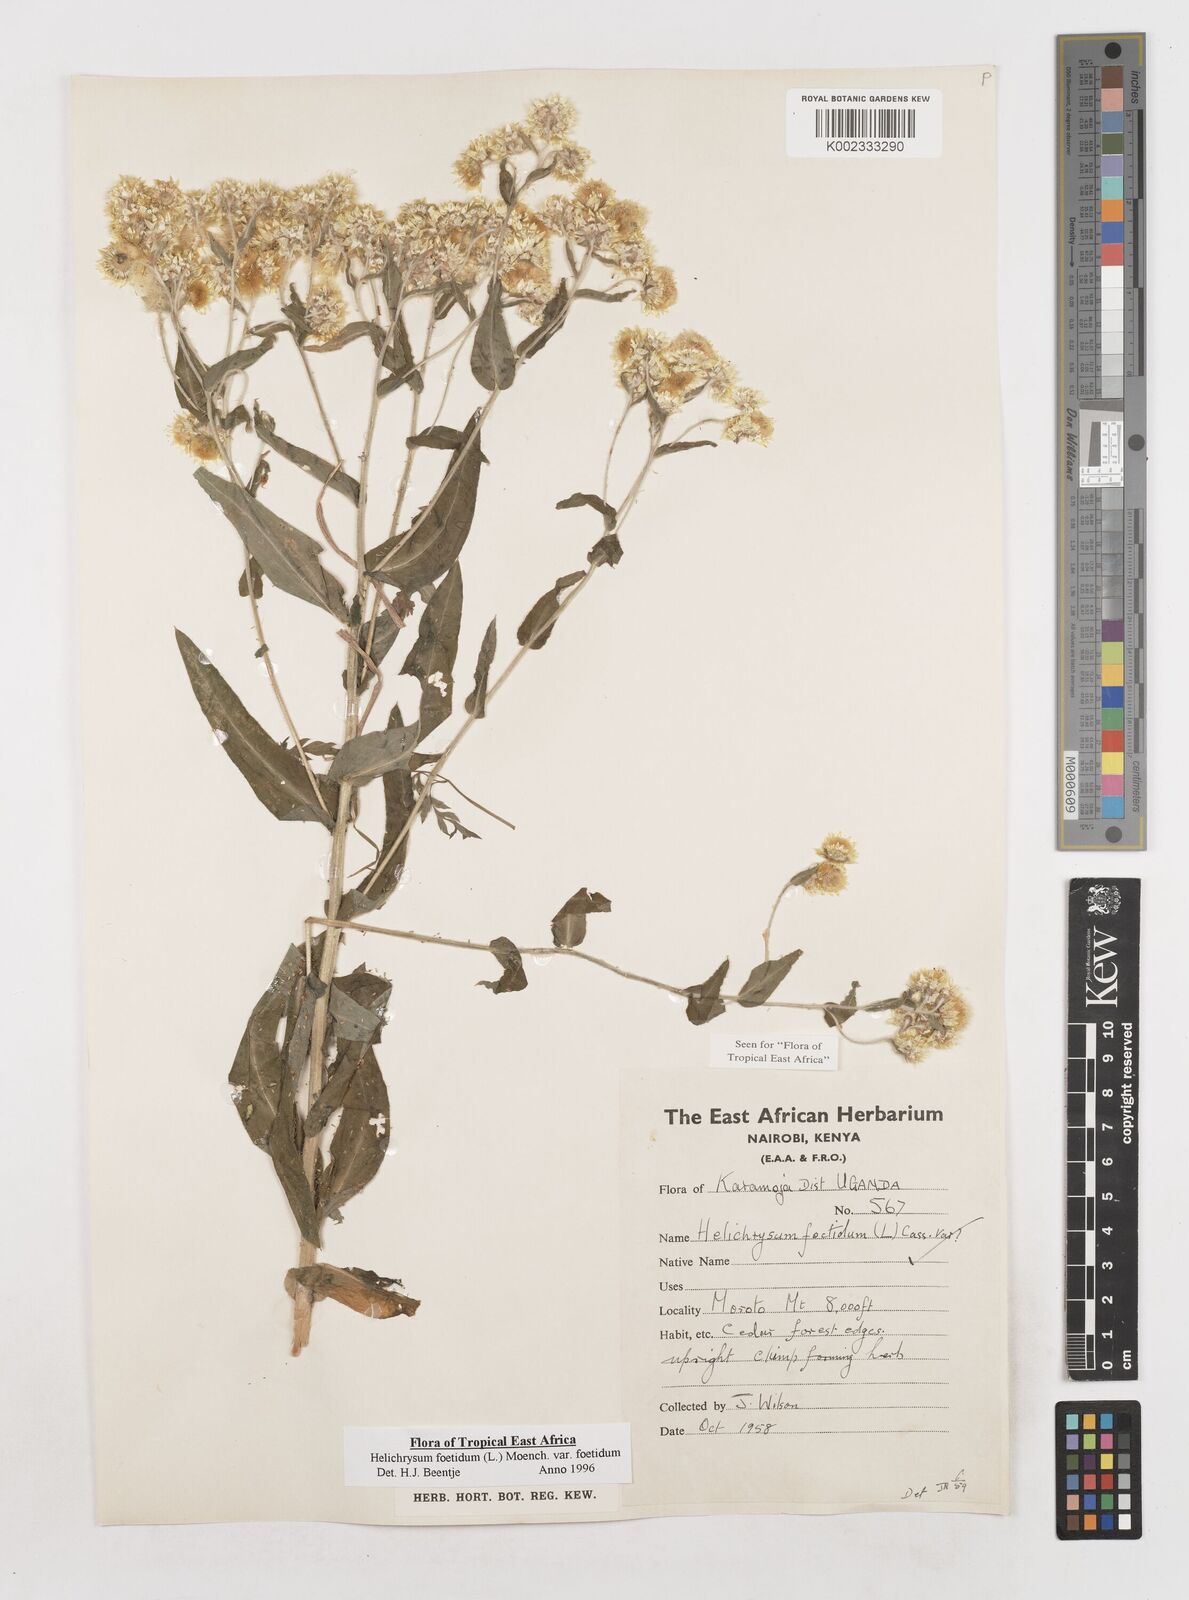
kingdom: Plantae
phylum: Tracheophyta
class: Magnoliopsida
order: Asterales
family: Asteraceae
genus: Helichrysum
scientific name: Helichrysum foetidum
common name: Stinking everlasting
